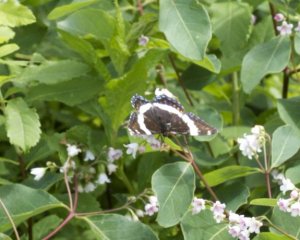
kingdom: Animalia
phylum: Arthropoda
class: Insecta
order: Lepidoptera
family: Nymphalidae
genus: Limenitis
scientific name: Limenitis arthemis
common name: Red-spotted Admiral
